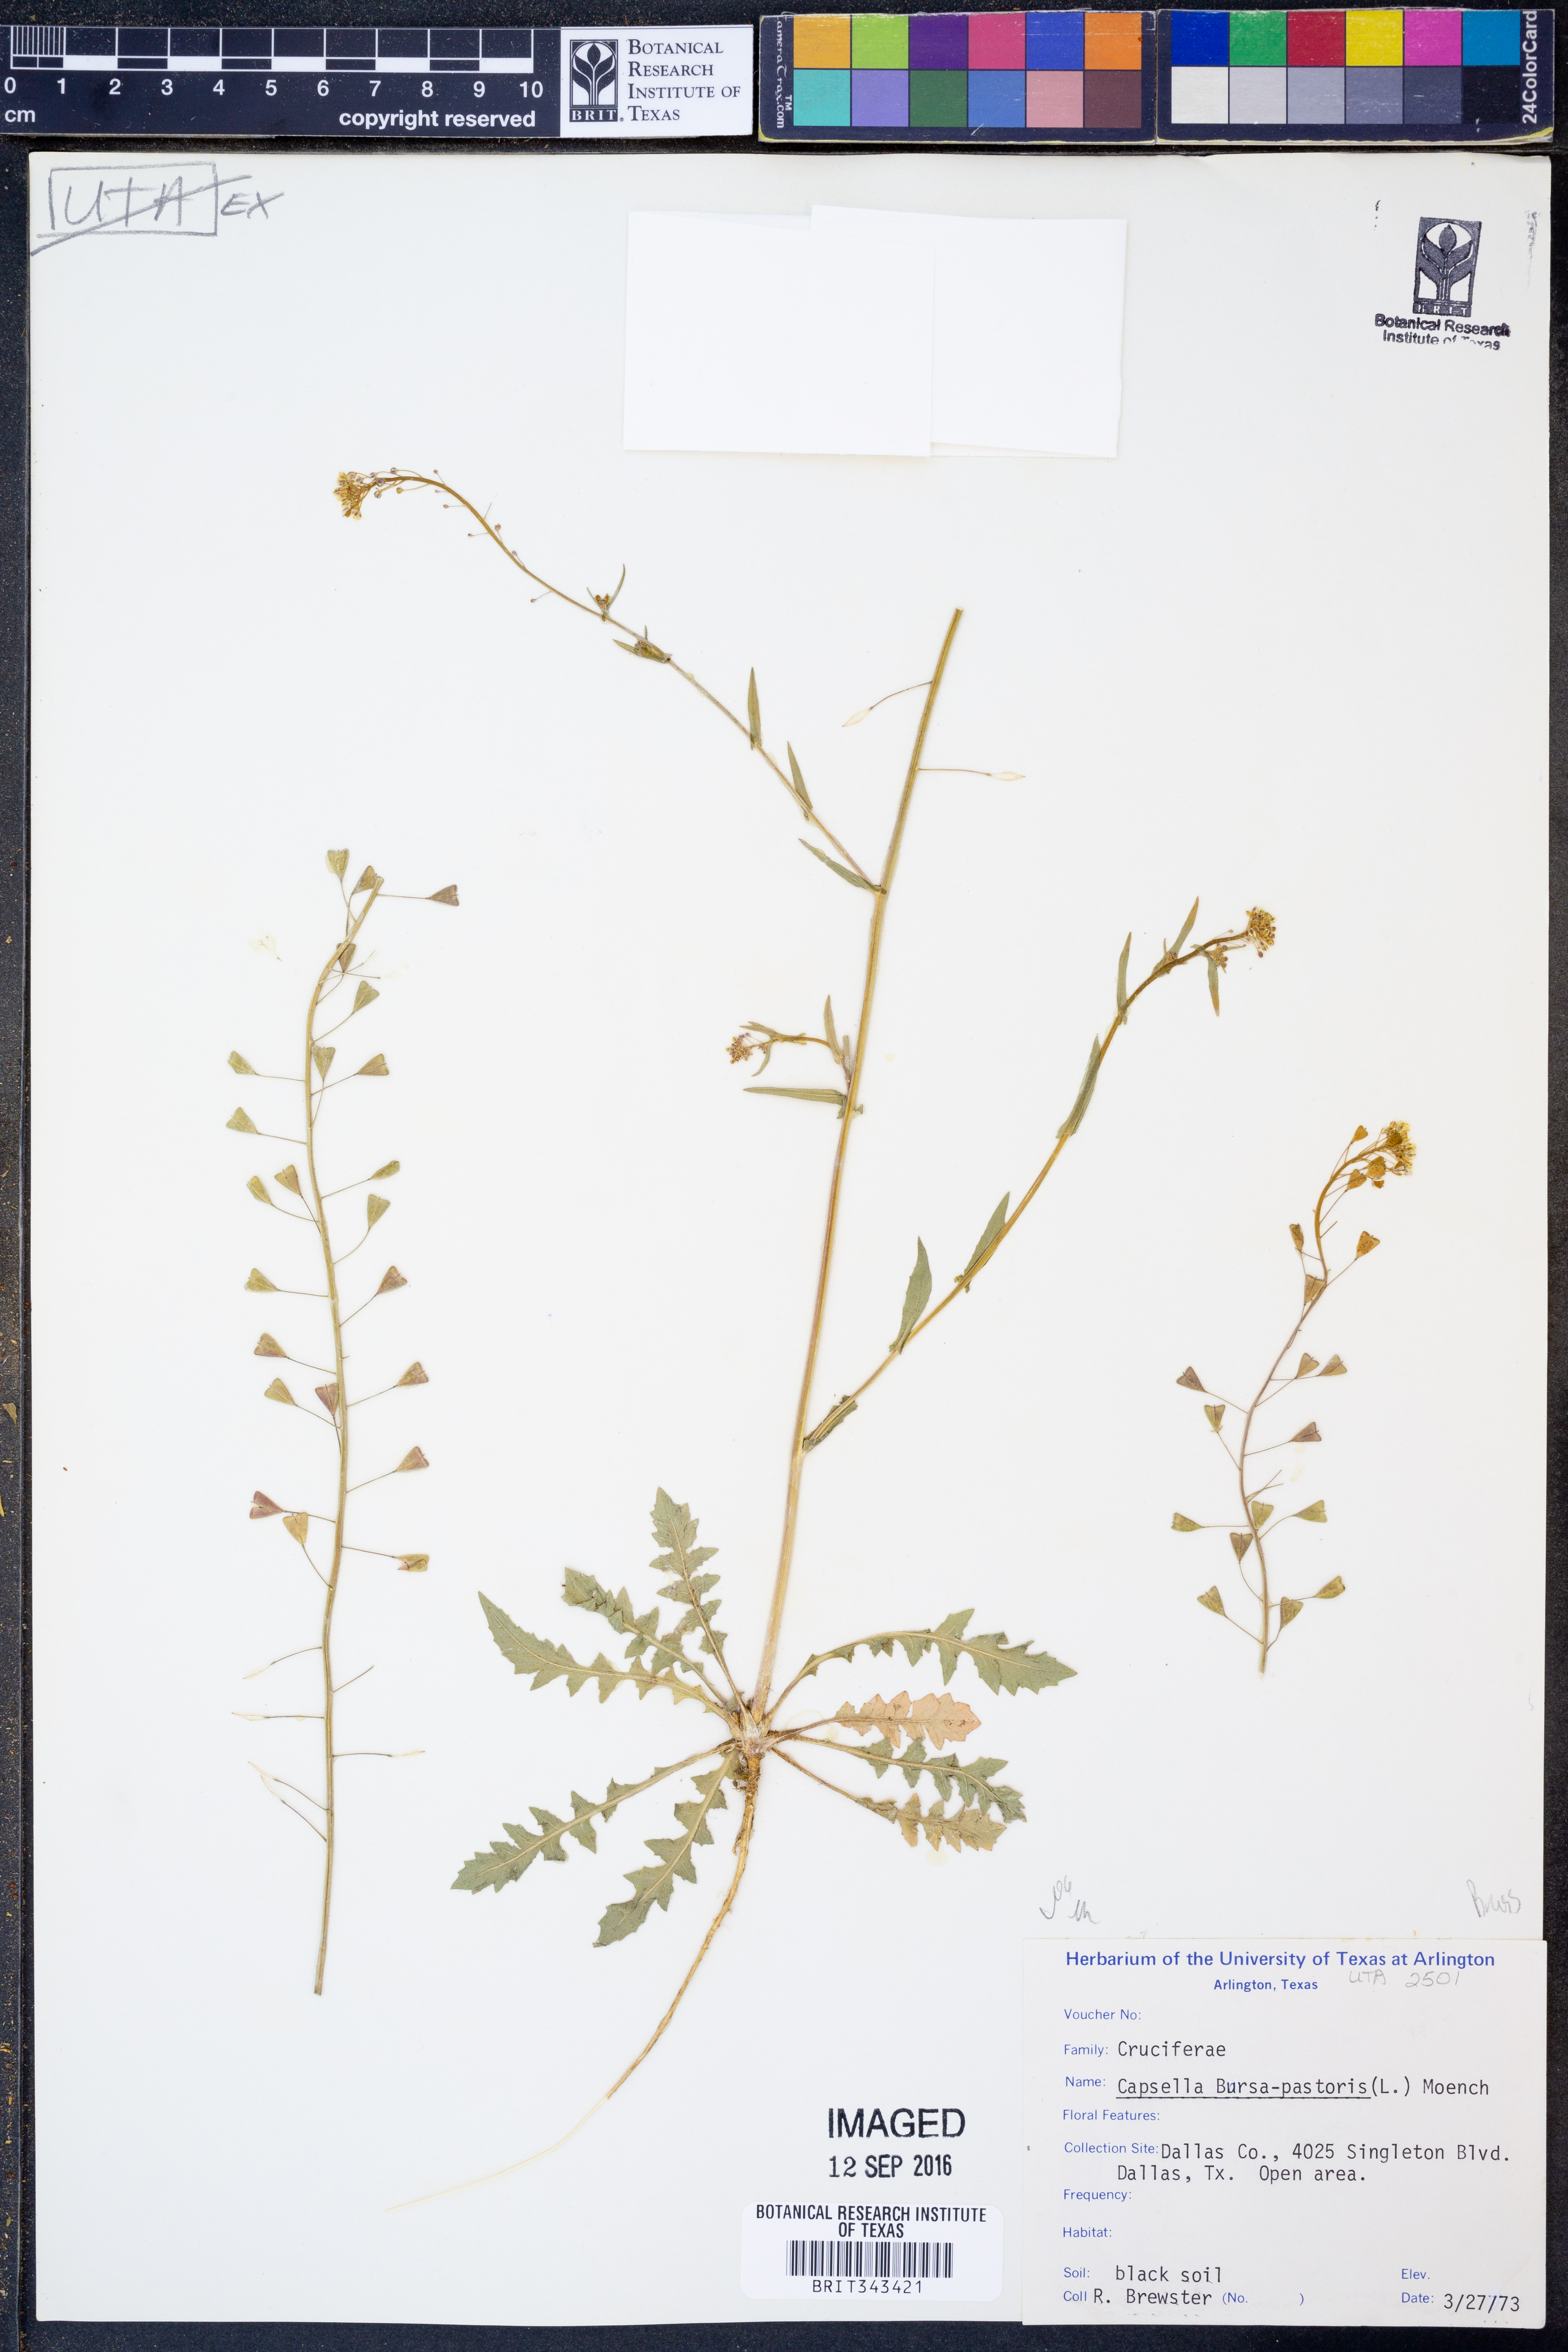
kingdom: Plantae
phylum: Tracheophyta
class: Magnoliopsida
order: Brassicales
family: Brassicaceae
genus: Capsella
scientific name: Capsella bursa-pastoris
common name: Shepherd's purse
